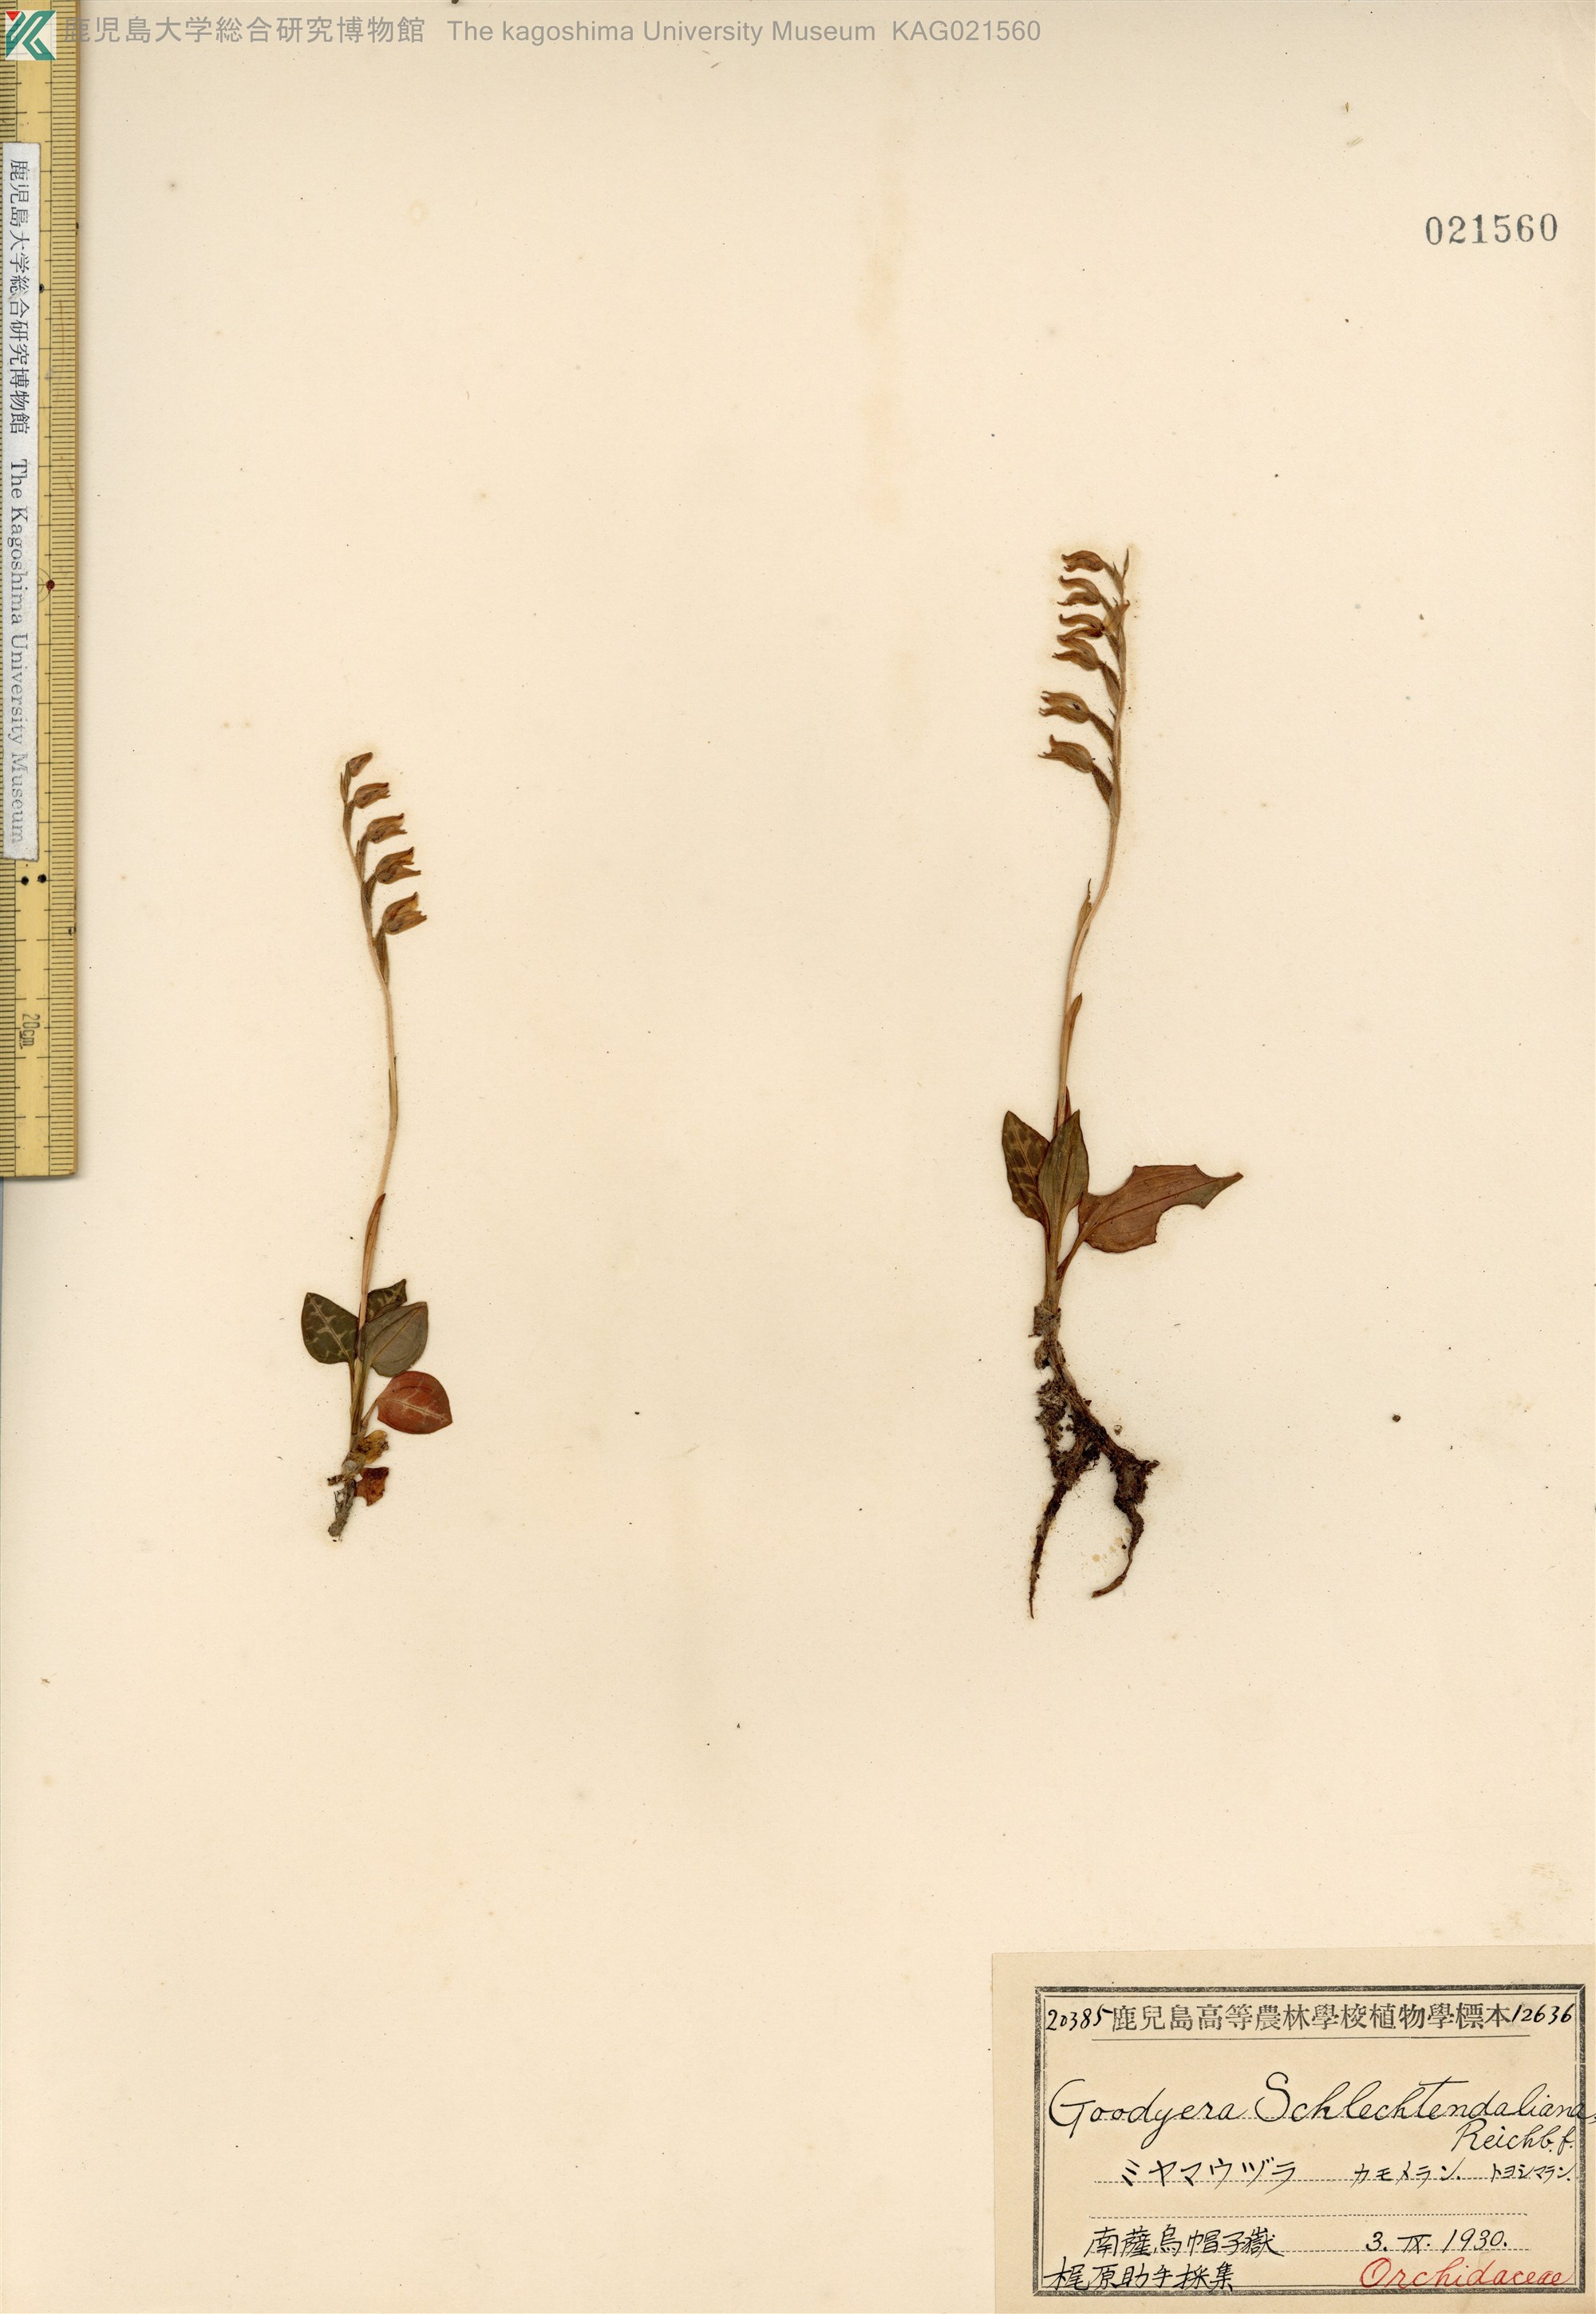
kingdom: Plantae
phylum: Tracheophyta
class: Liliopsida
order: Asparagales
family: Orchidaceae
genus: Goodyera
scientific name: Goodyera schlechtendaliana
